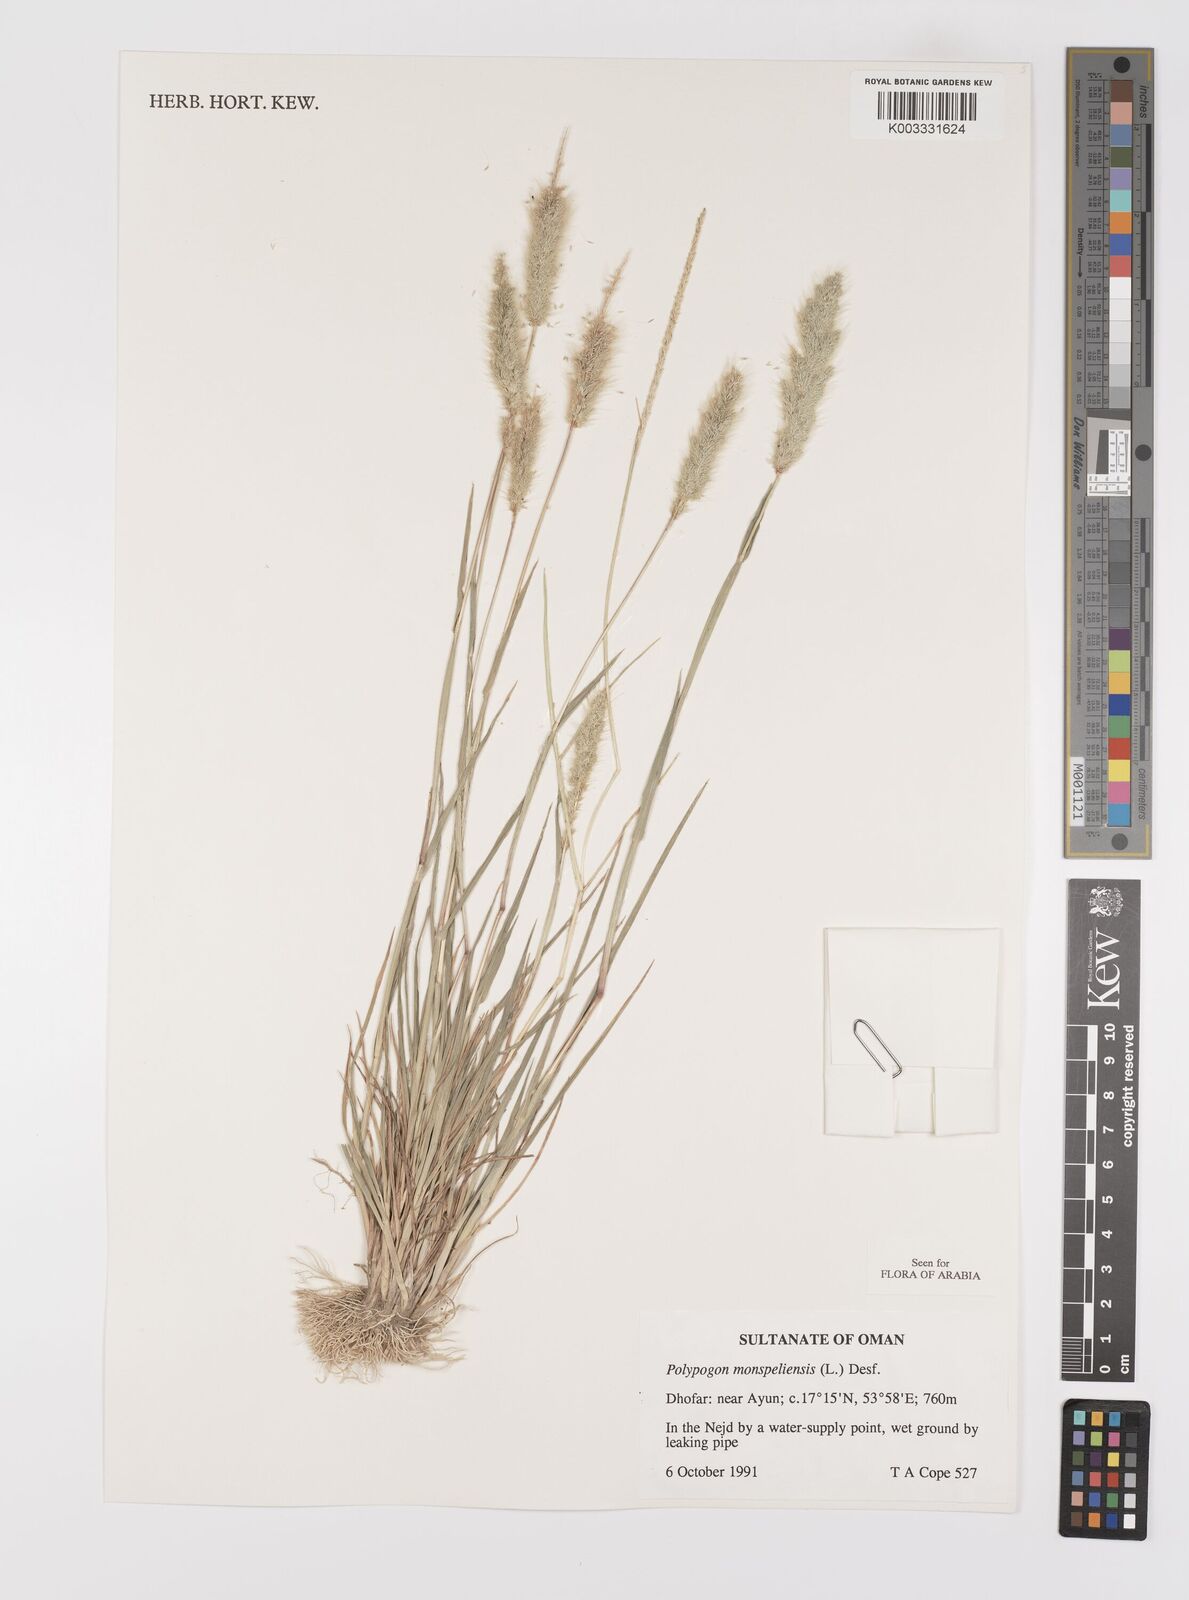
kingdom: Plantae
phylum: Tracheophyta
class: Liliopsida
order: Poales
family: Poaceae
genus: Polypogon
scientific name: Polypogon monspeliensis
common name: Annual rabbitsfoot grass
